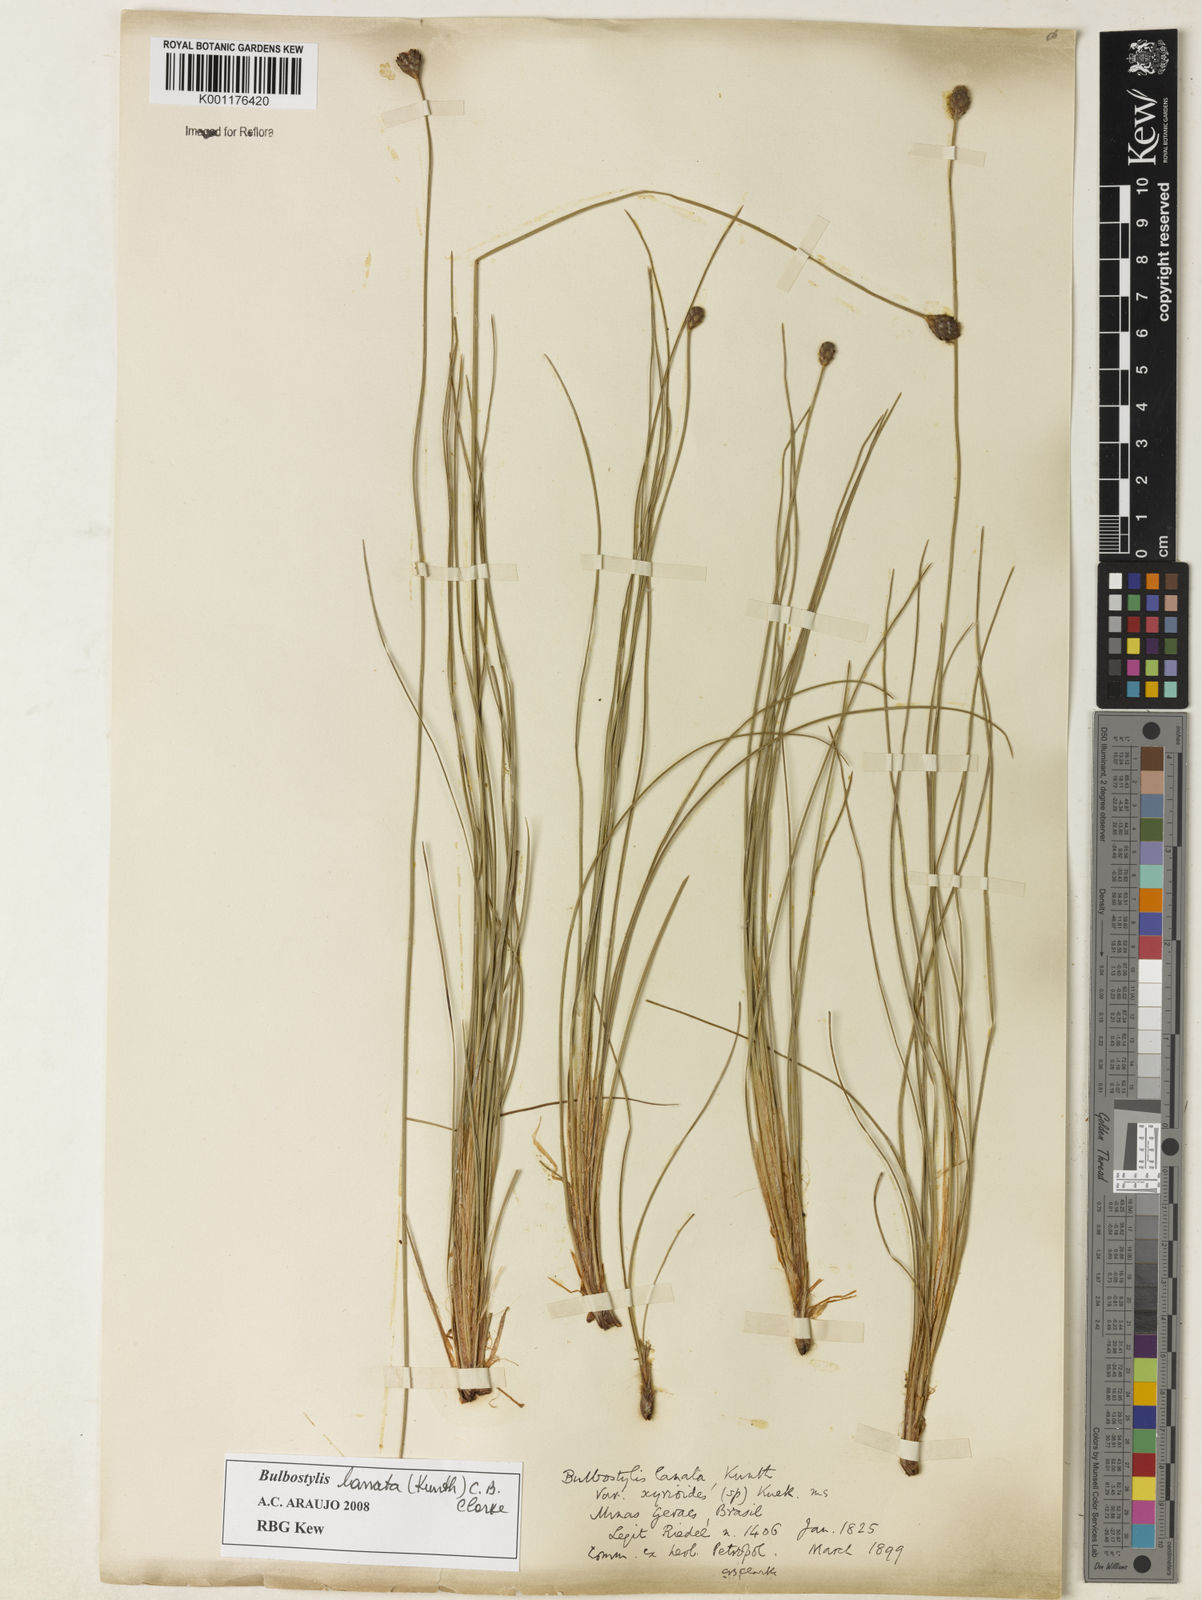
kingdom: Plantae
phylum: Tracheophyta
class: Liliopsida
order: Poales
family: Cyperaceae
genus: Bulbostylis
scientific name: Bulbostylis lanata
